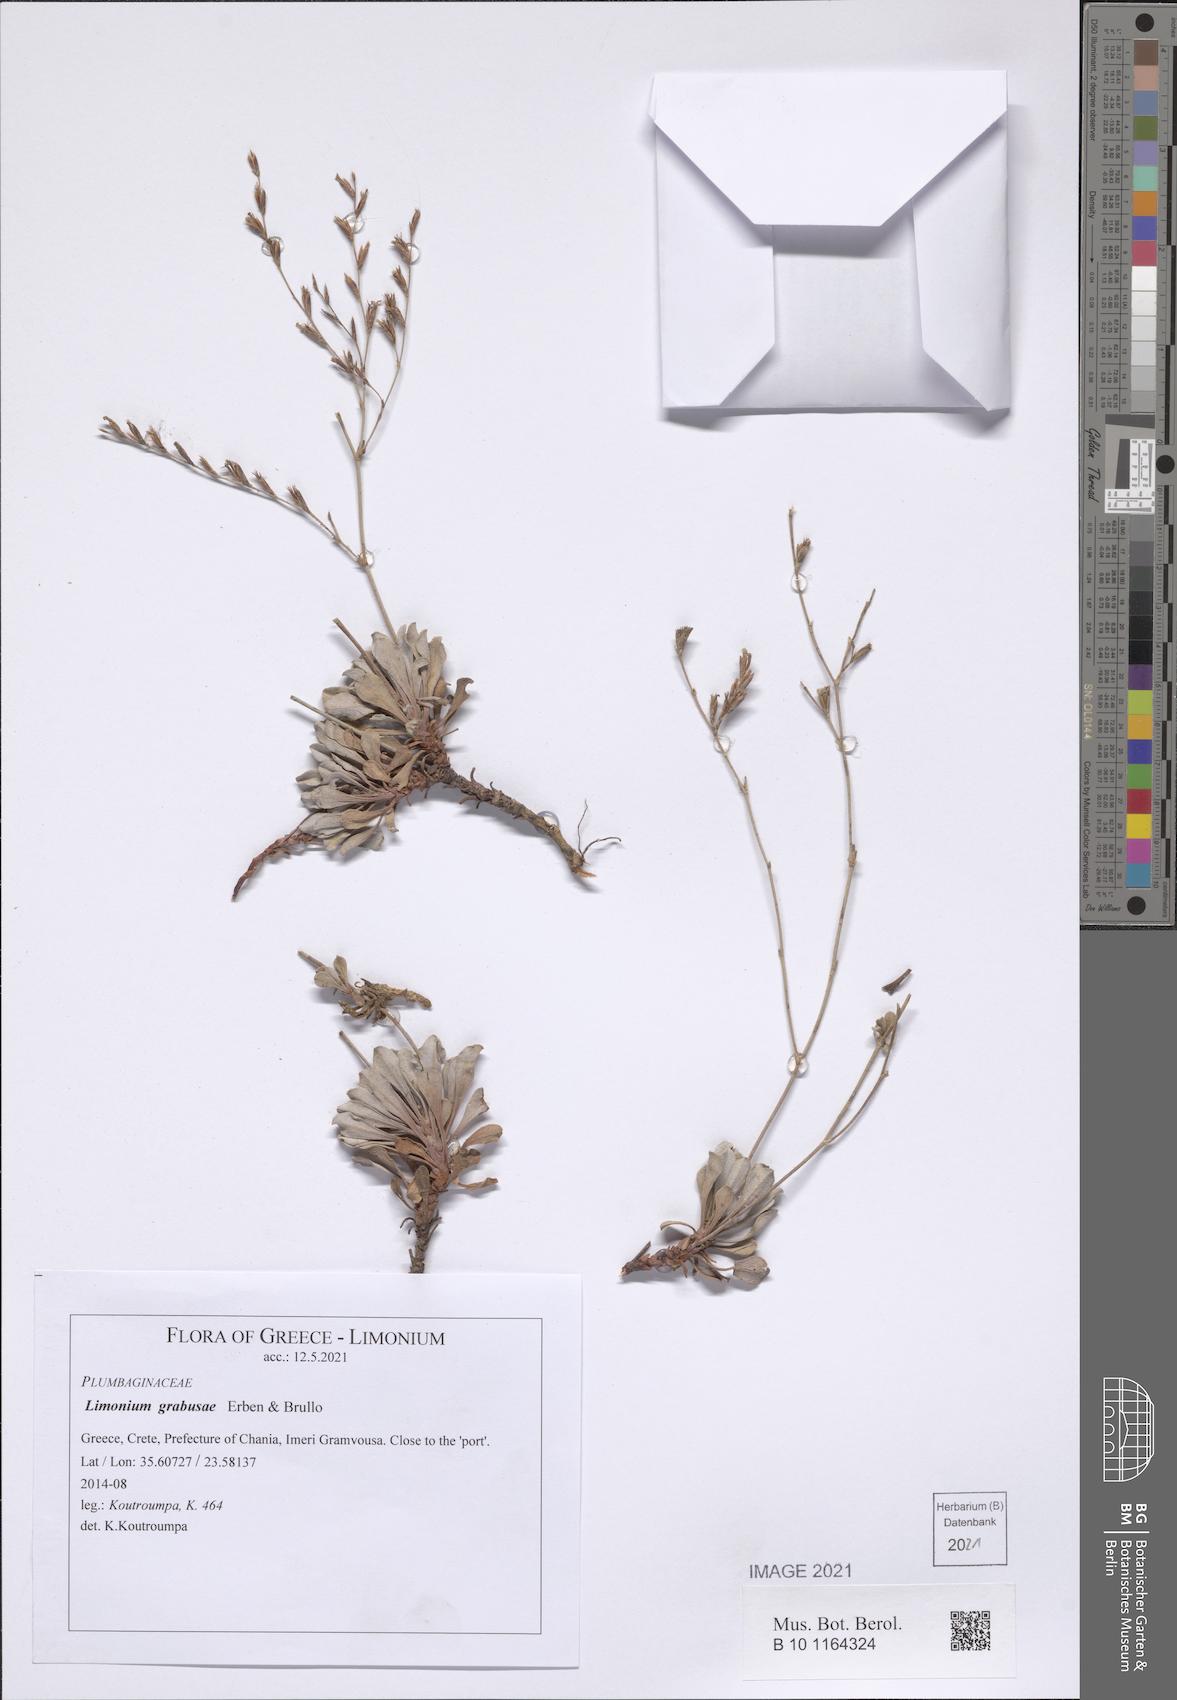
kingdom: Plantae
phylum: Tracheophyta
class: Magnoliopsida
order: Caryophyllales
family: Plumbaginaceae
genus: Limonium
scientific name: Limonium grabusae
